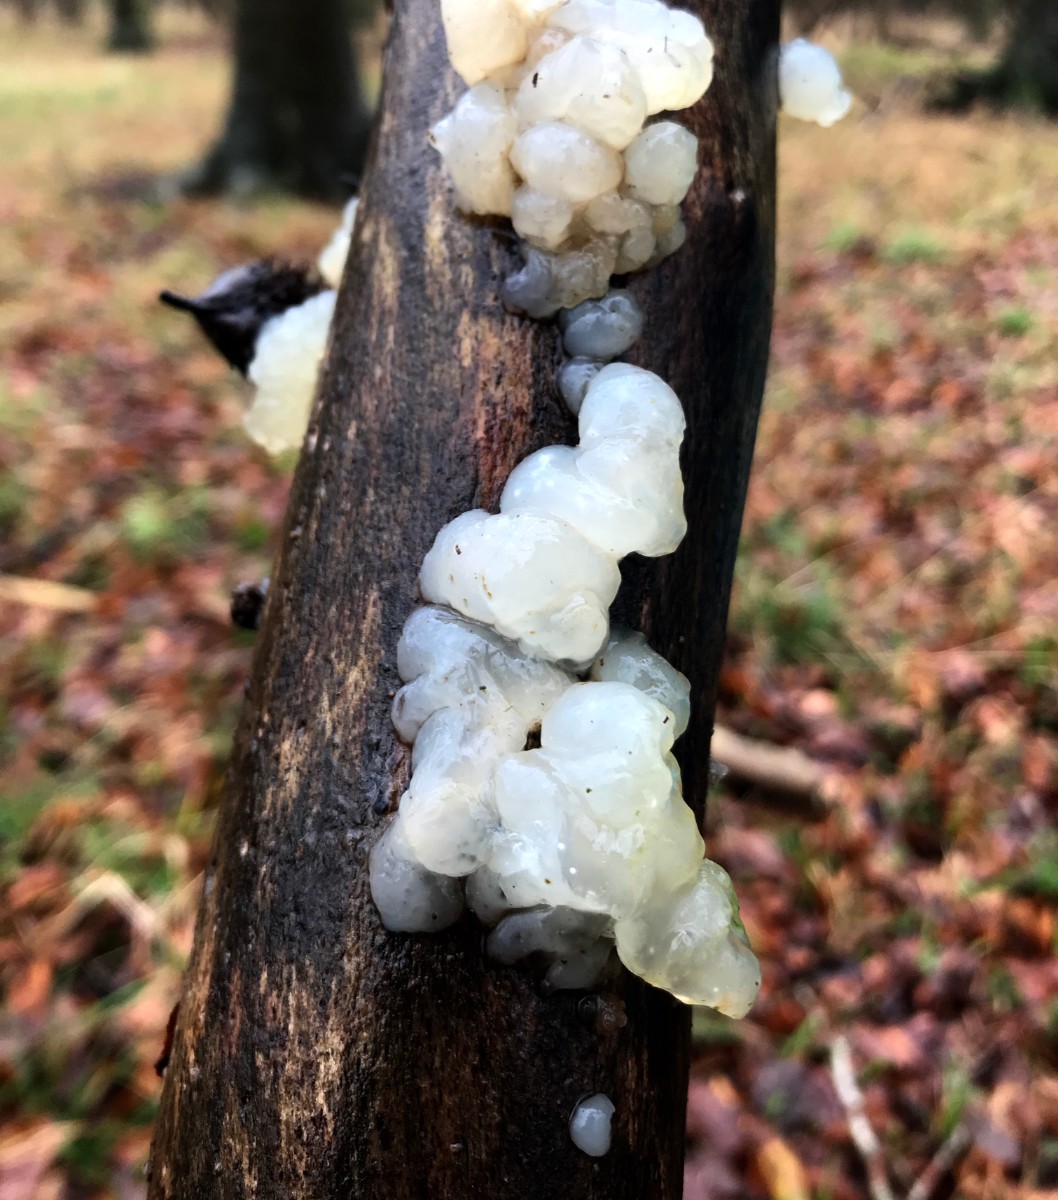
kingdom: Fungi
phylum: Basidiomycota
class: Agaricomycetes
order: Auriculariales
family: Hyaloriaceae
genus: Myxarium
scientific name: Myxarium nucleatum
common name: klar bævretop
